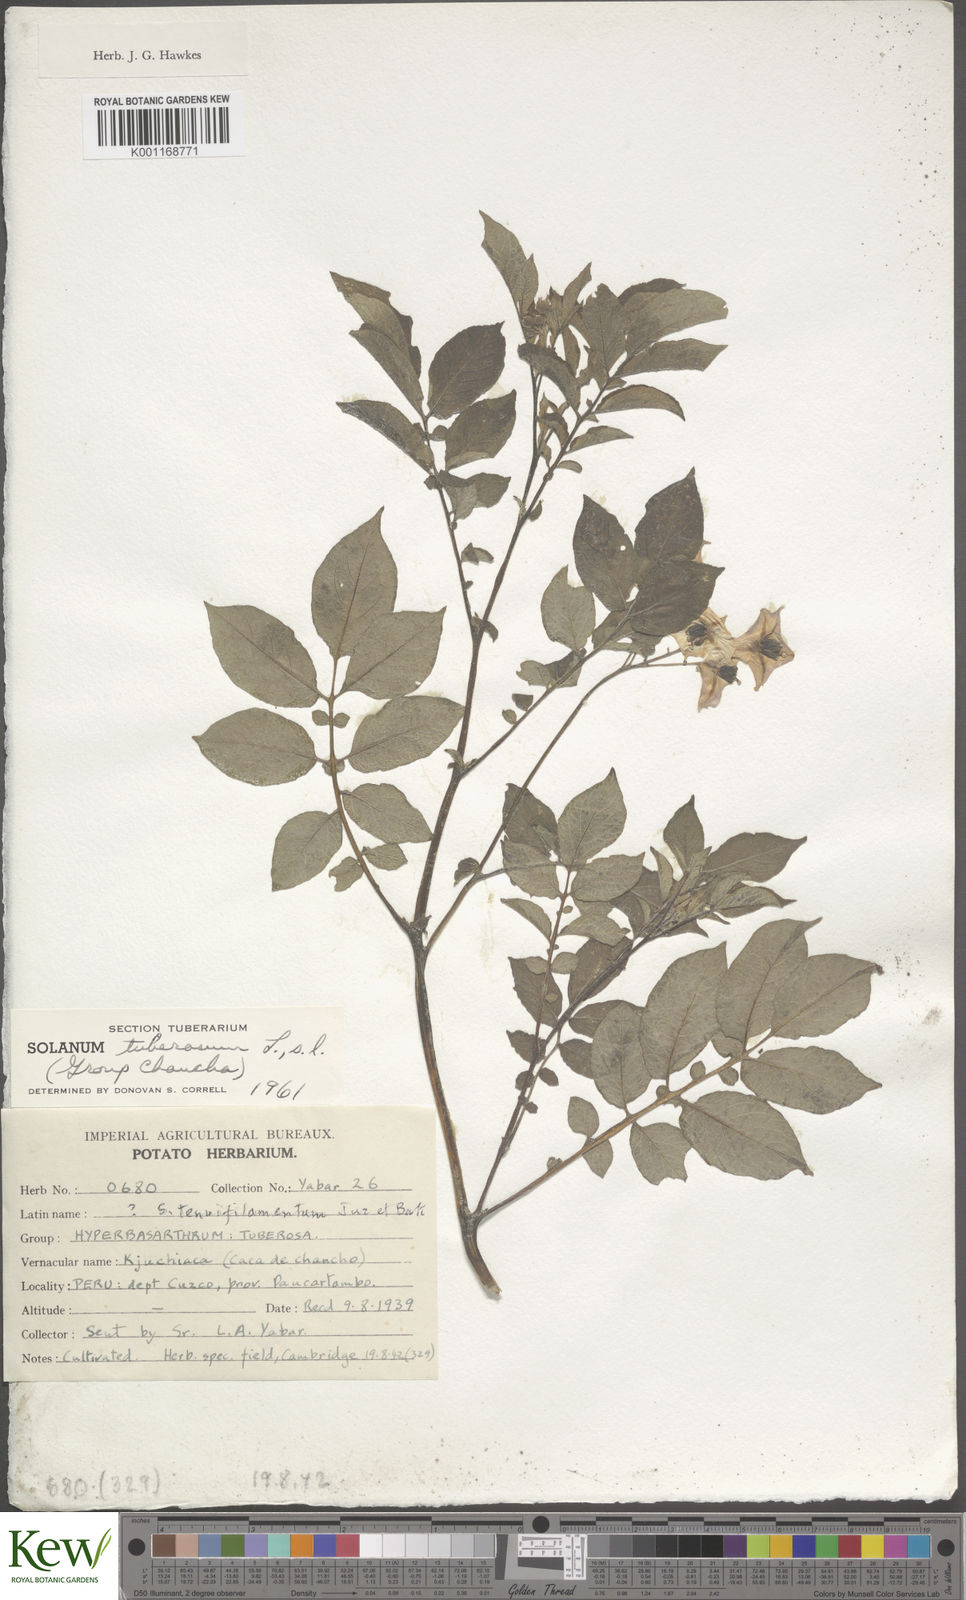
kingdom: Plantae
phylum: Tracheophyta
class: Magnoliopsida
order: Solanales
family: Solanaceae
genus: Solanum
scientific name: Solanum chaucha
